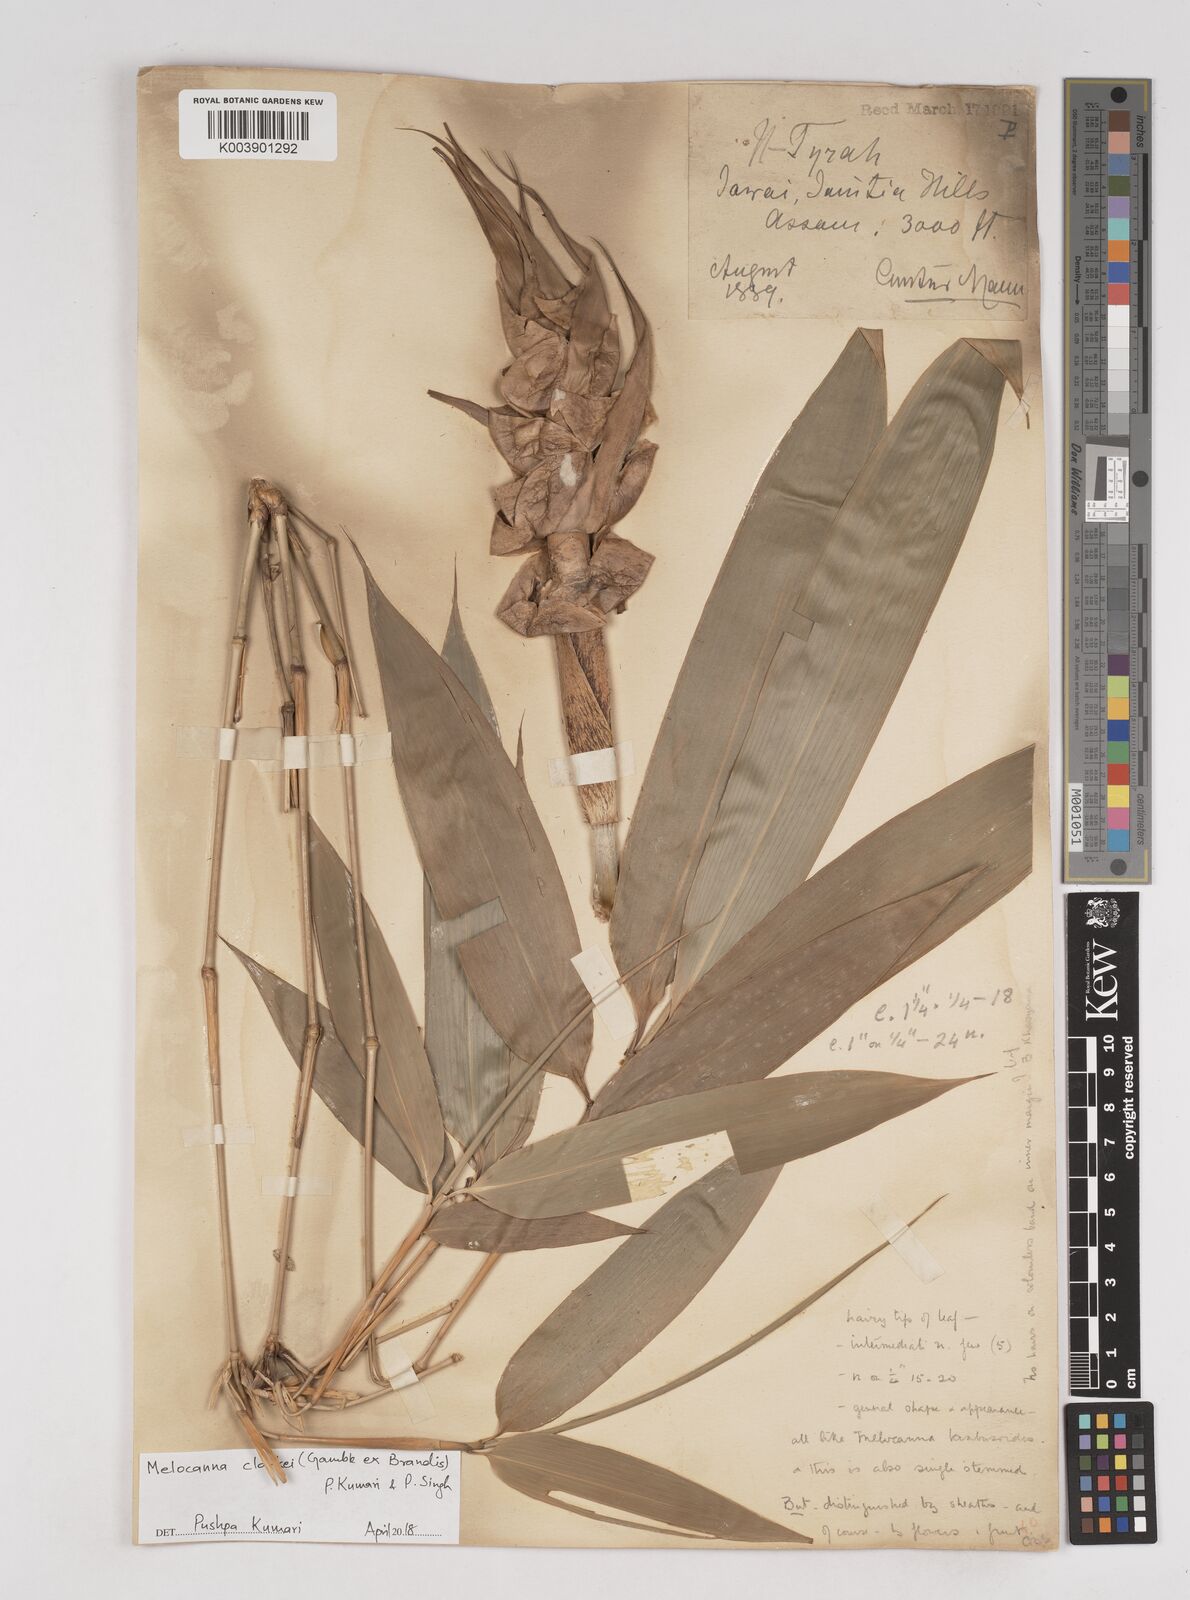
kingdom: Plantae
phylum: Tracheophyta
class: Liliopsida
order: Poales
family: Poaceae
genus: Melocanna
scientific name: Melocanna clarkei
